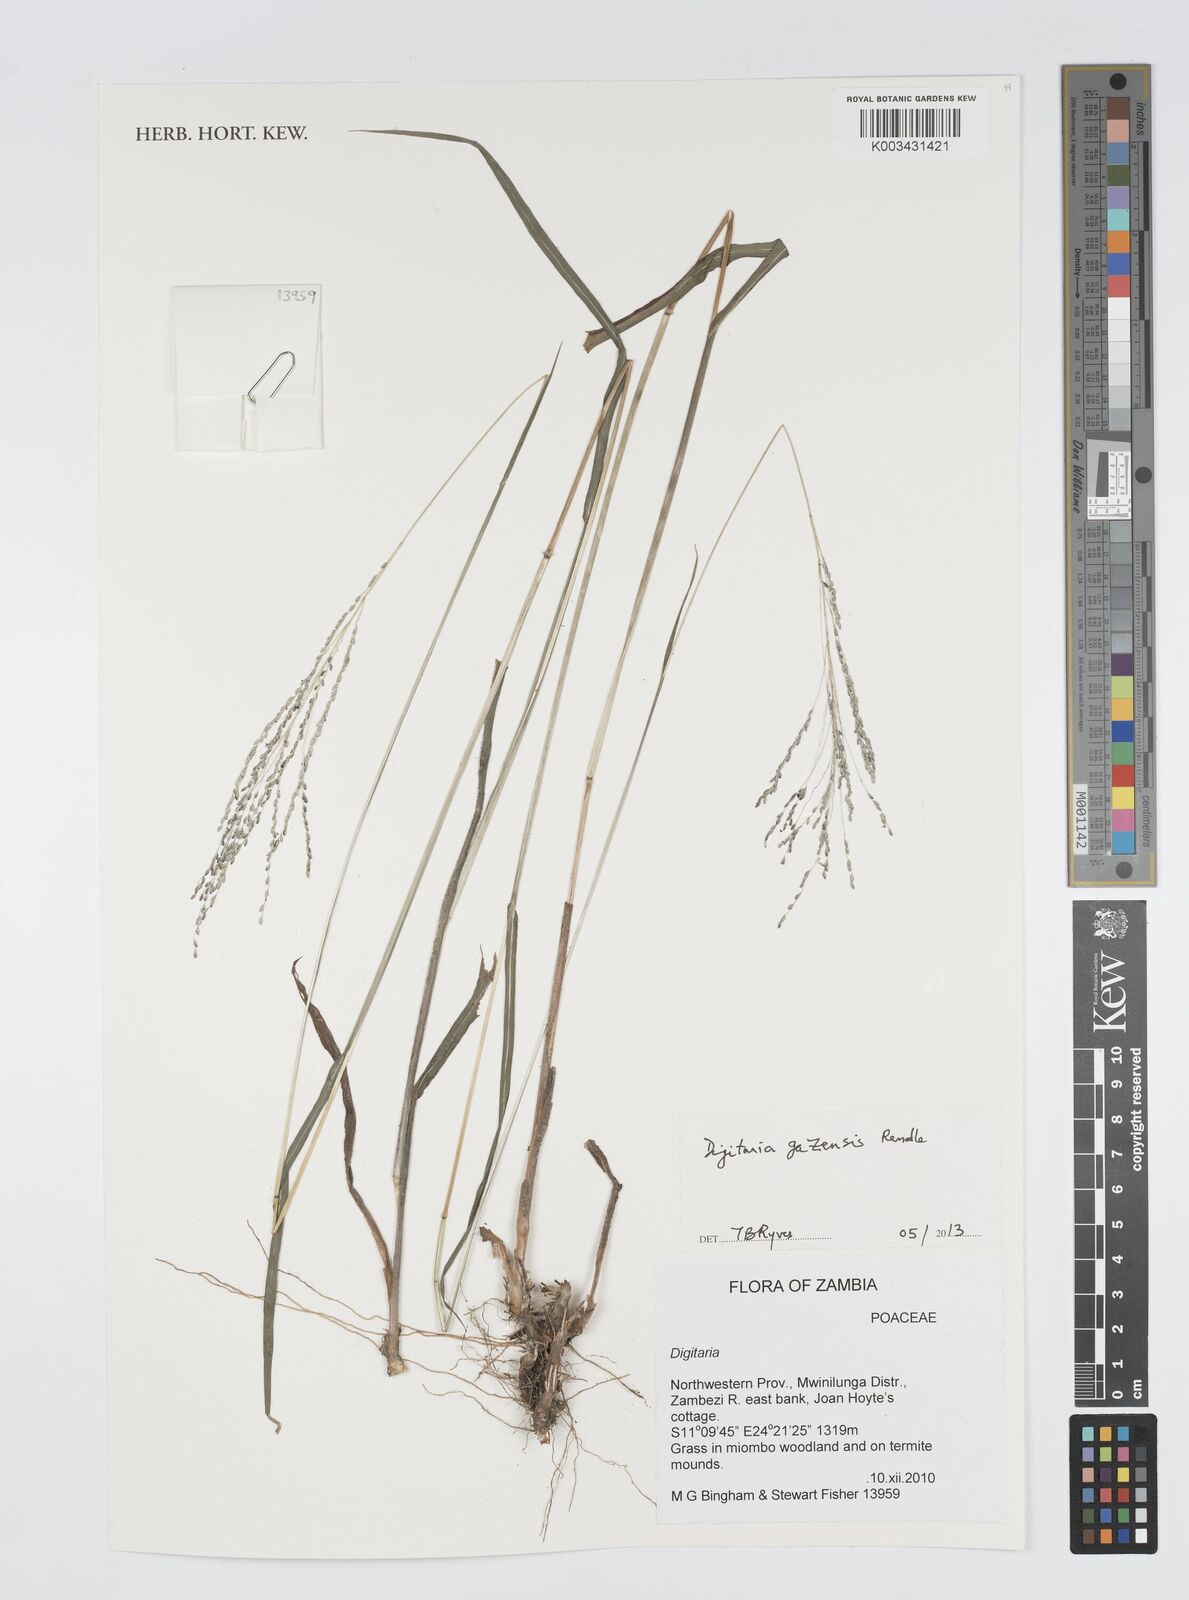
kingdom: Plantae
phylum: Tracheophyta
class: Liliopsida
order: Poales
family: Poaceae
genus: Digitaria
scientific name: Digitaria gazensis
